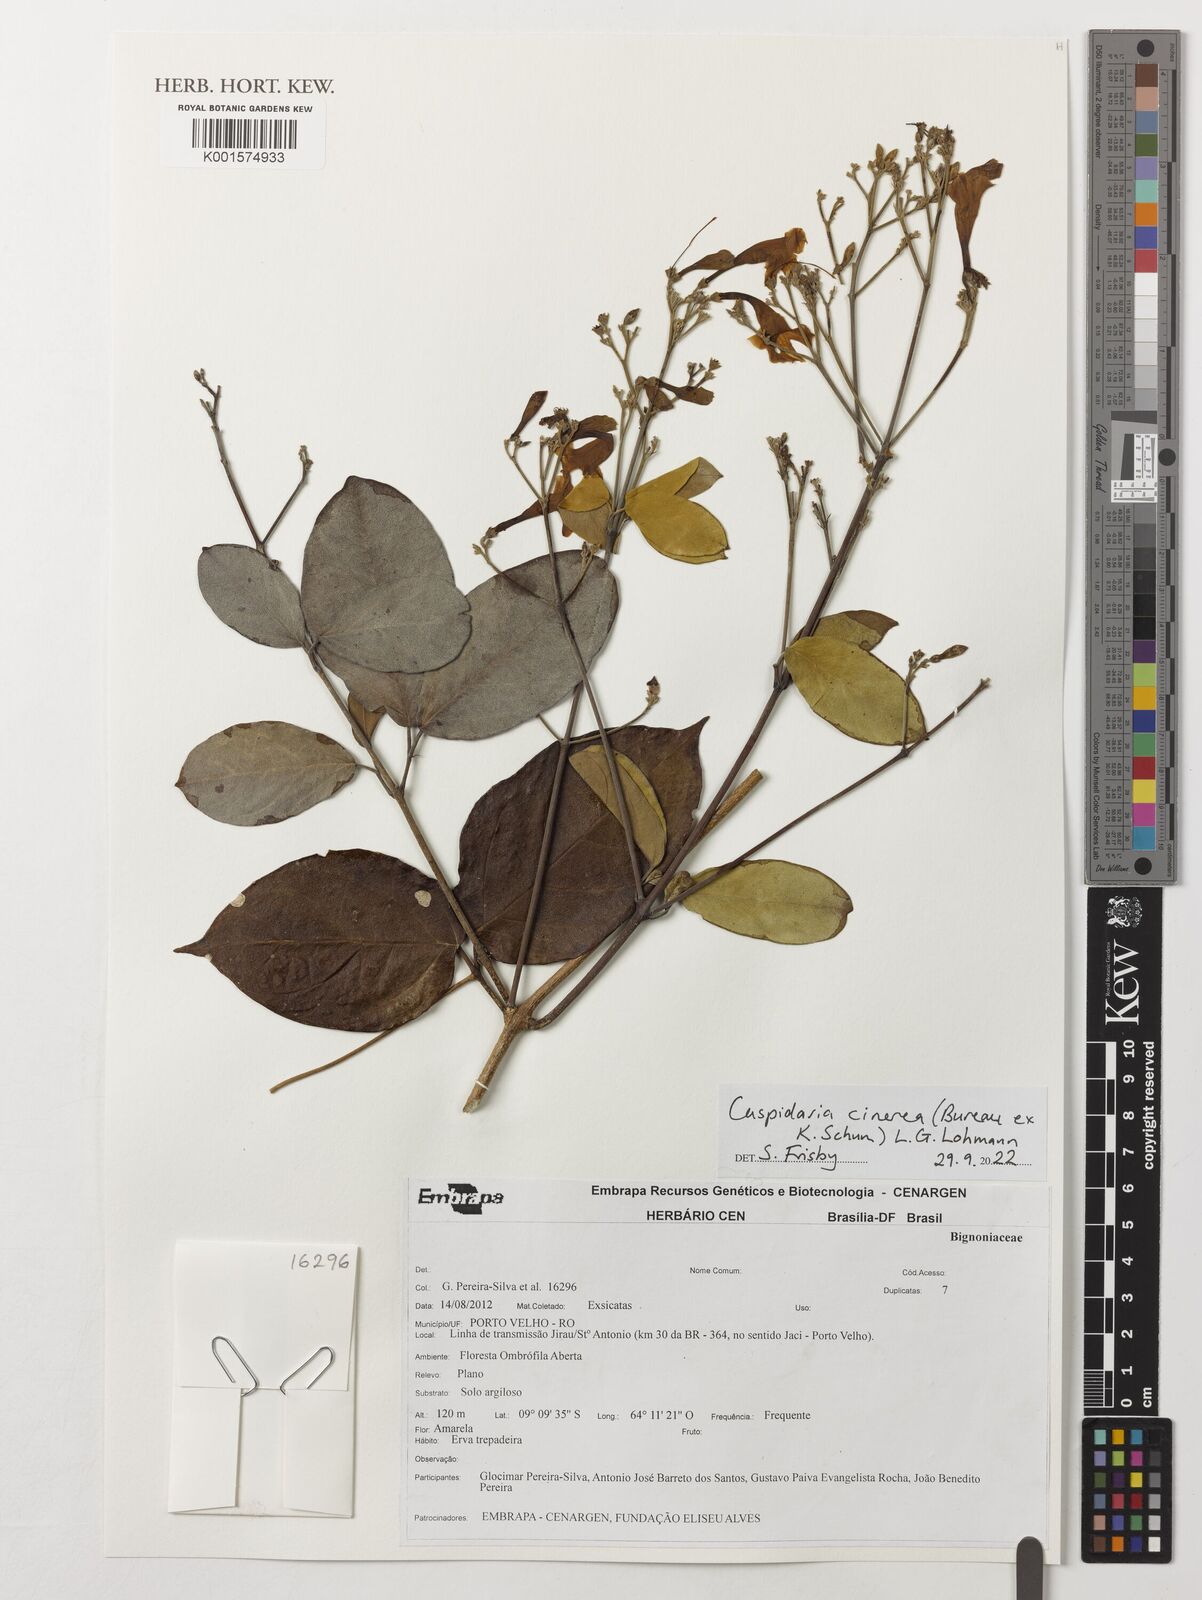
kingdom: Plantae
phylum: Tracheophyta
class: Magnoliopsida
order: Lamiales
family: Bignoniaceae
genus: Cuspidaria
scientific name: Cuspidaria cinerea
